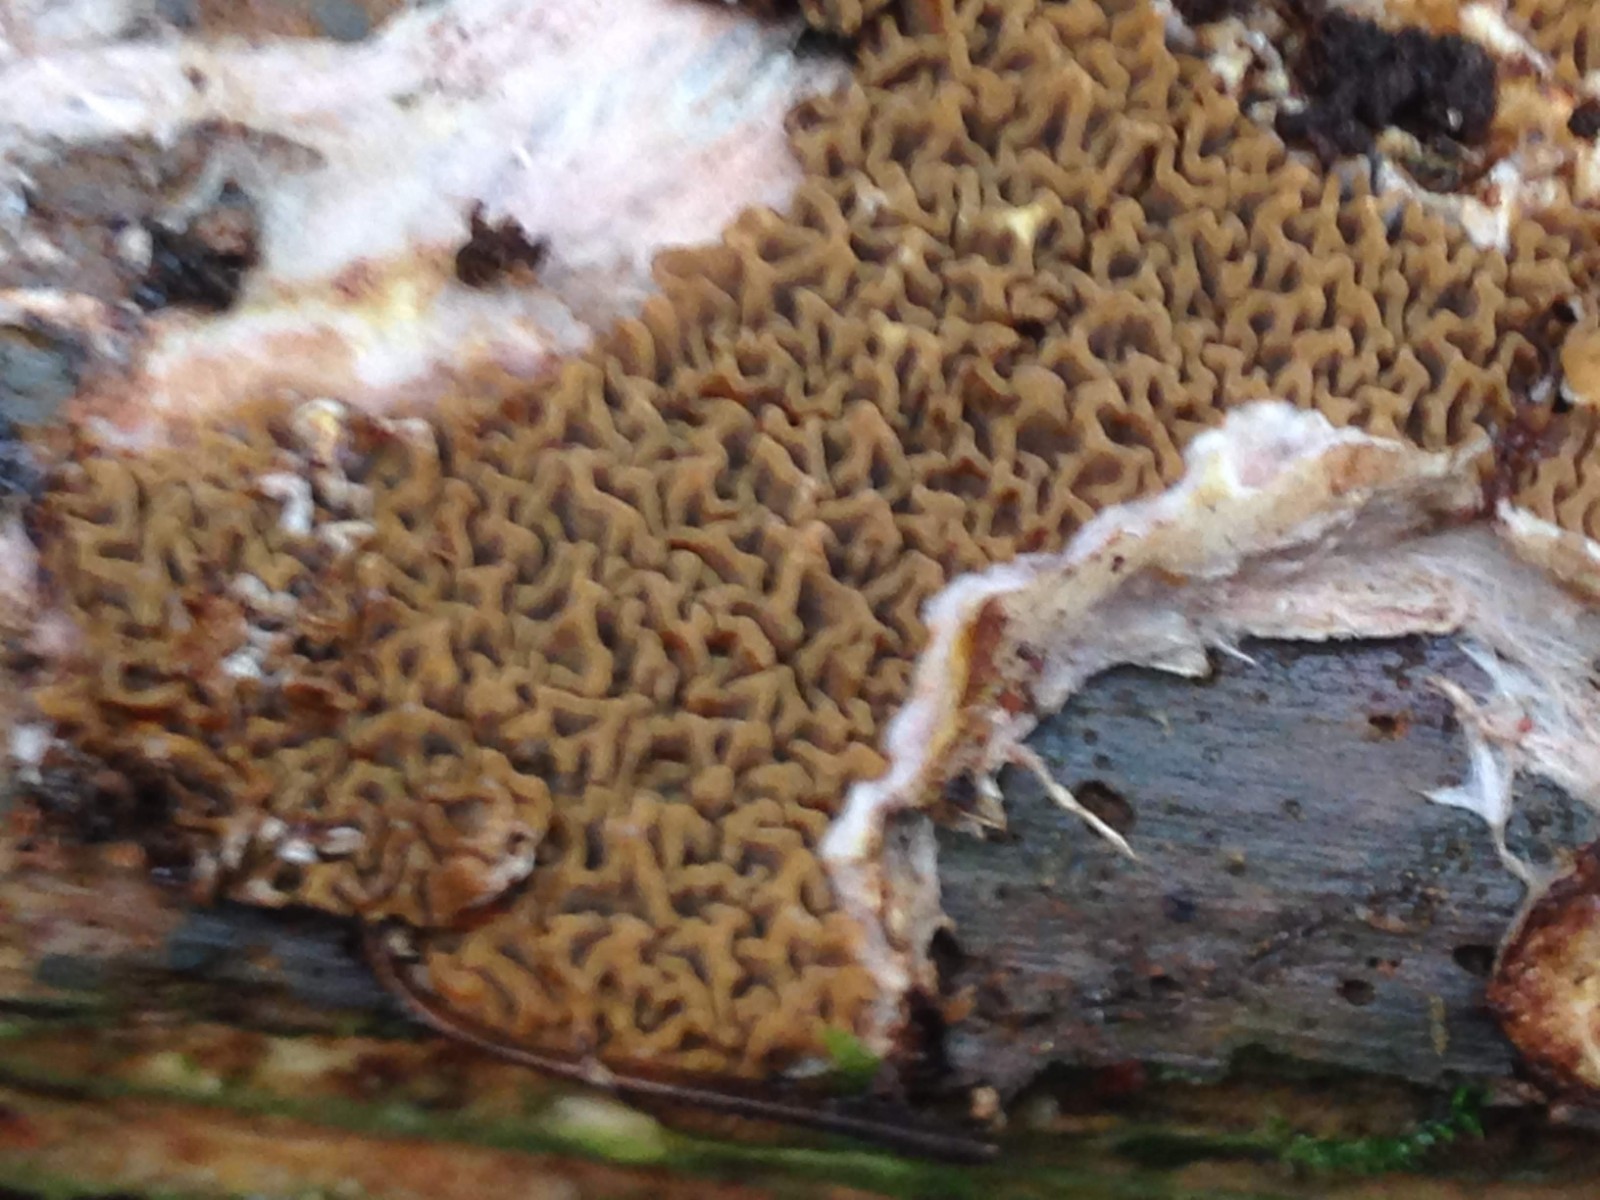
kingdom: Fungi
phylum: Basidiomycota
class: Agaricomycetes
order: Boletales
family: Serpulaceae
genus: Serpula
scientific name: Serpula himantioides
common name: tyndkødet hussvamp
